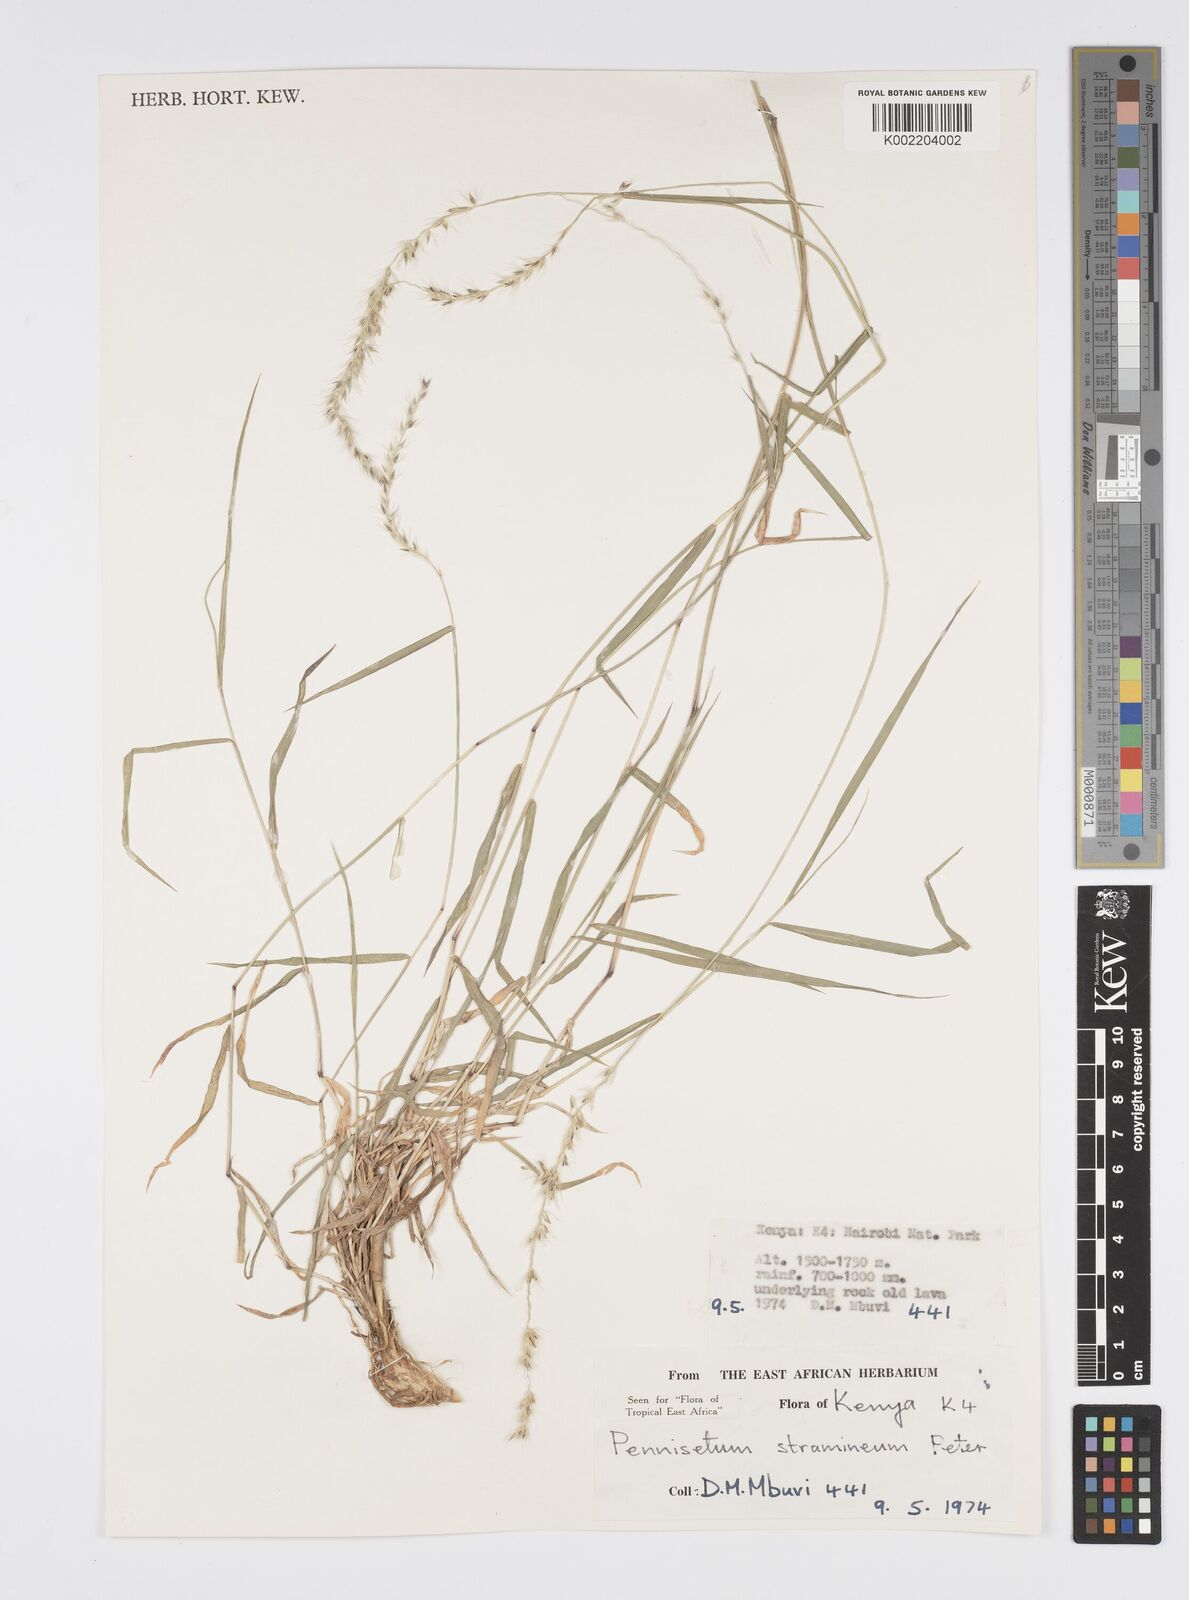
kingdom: Plantae
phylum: Tracheophyta
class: Liliopsida
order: Poales
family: Poaceae
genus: Cenchrus
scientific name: Cenchrus stramineus
